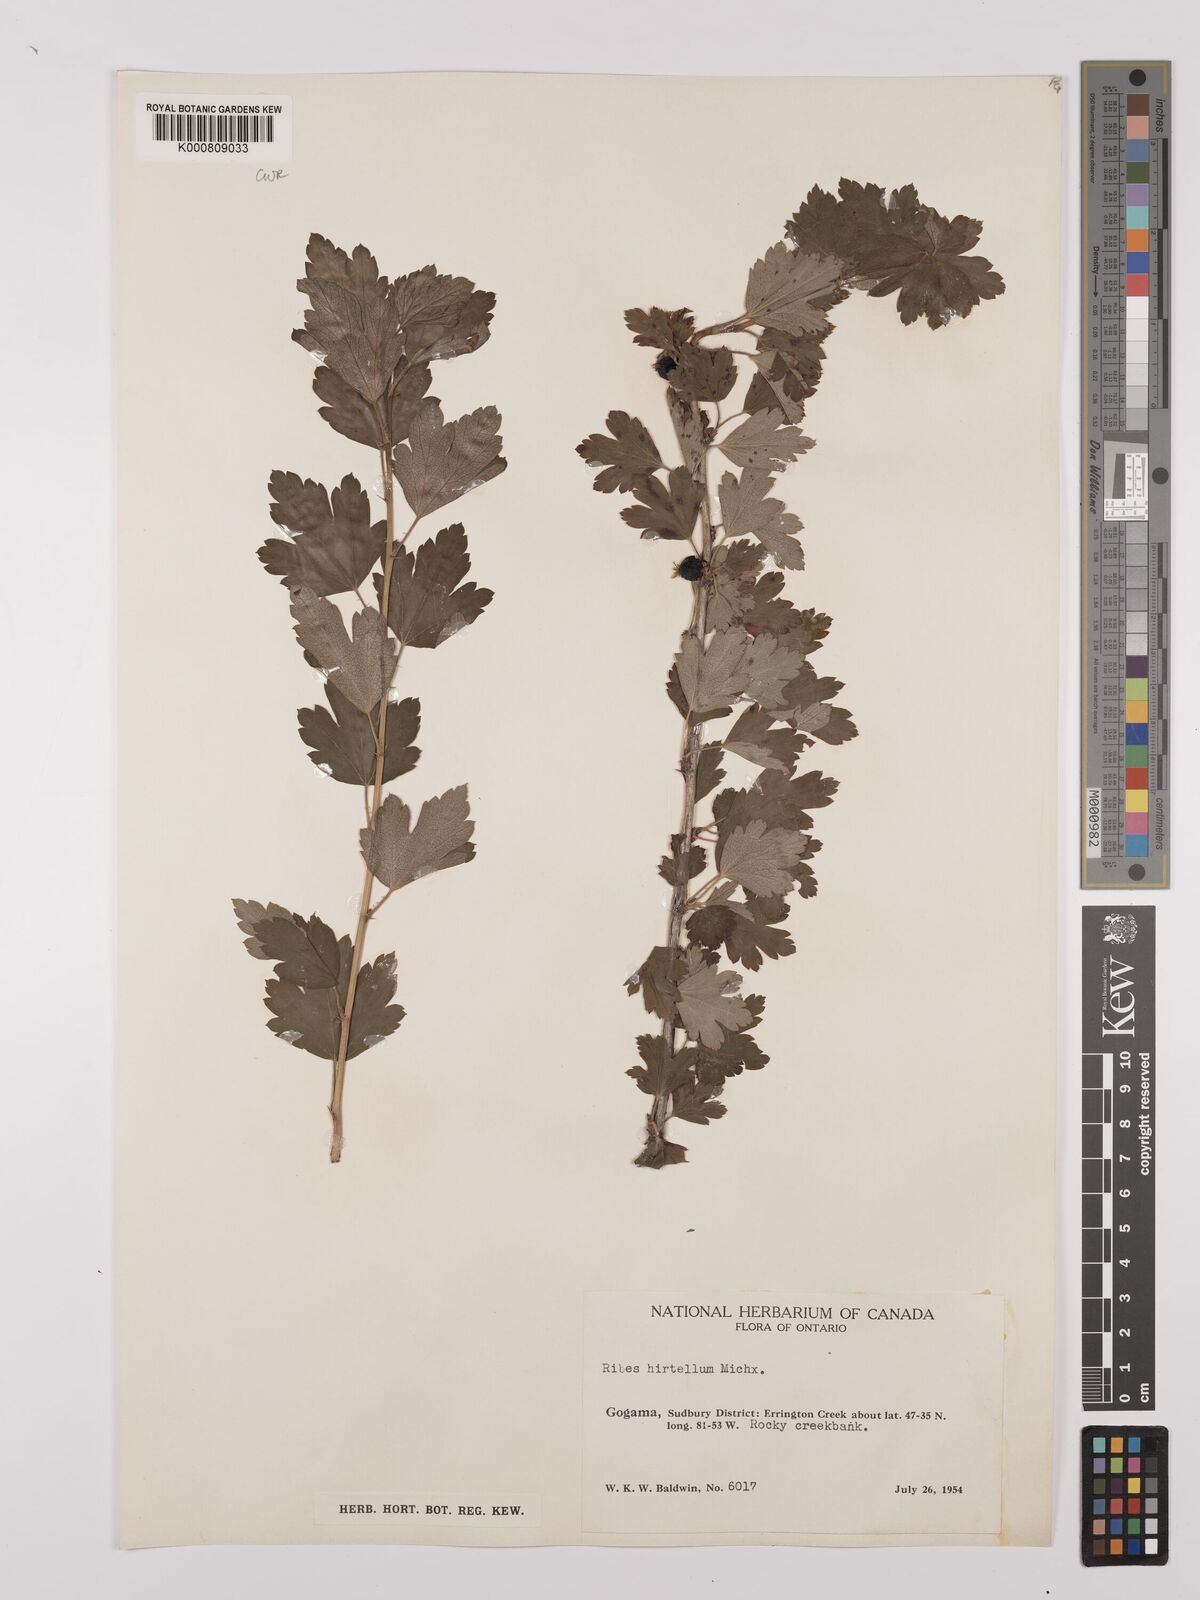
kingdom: Plantae
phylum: Tracheophyta
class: Magnoliopsida
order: Saxifragales
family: Grossulariaceae
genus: Ribes
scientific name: Ribes hirtellum
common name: Hairy gooseberry
